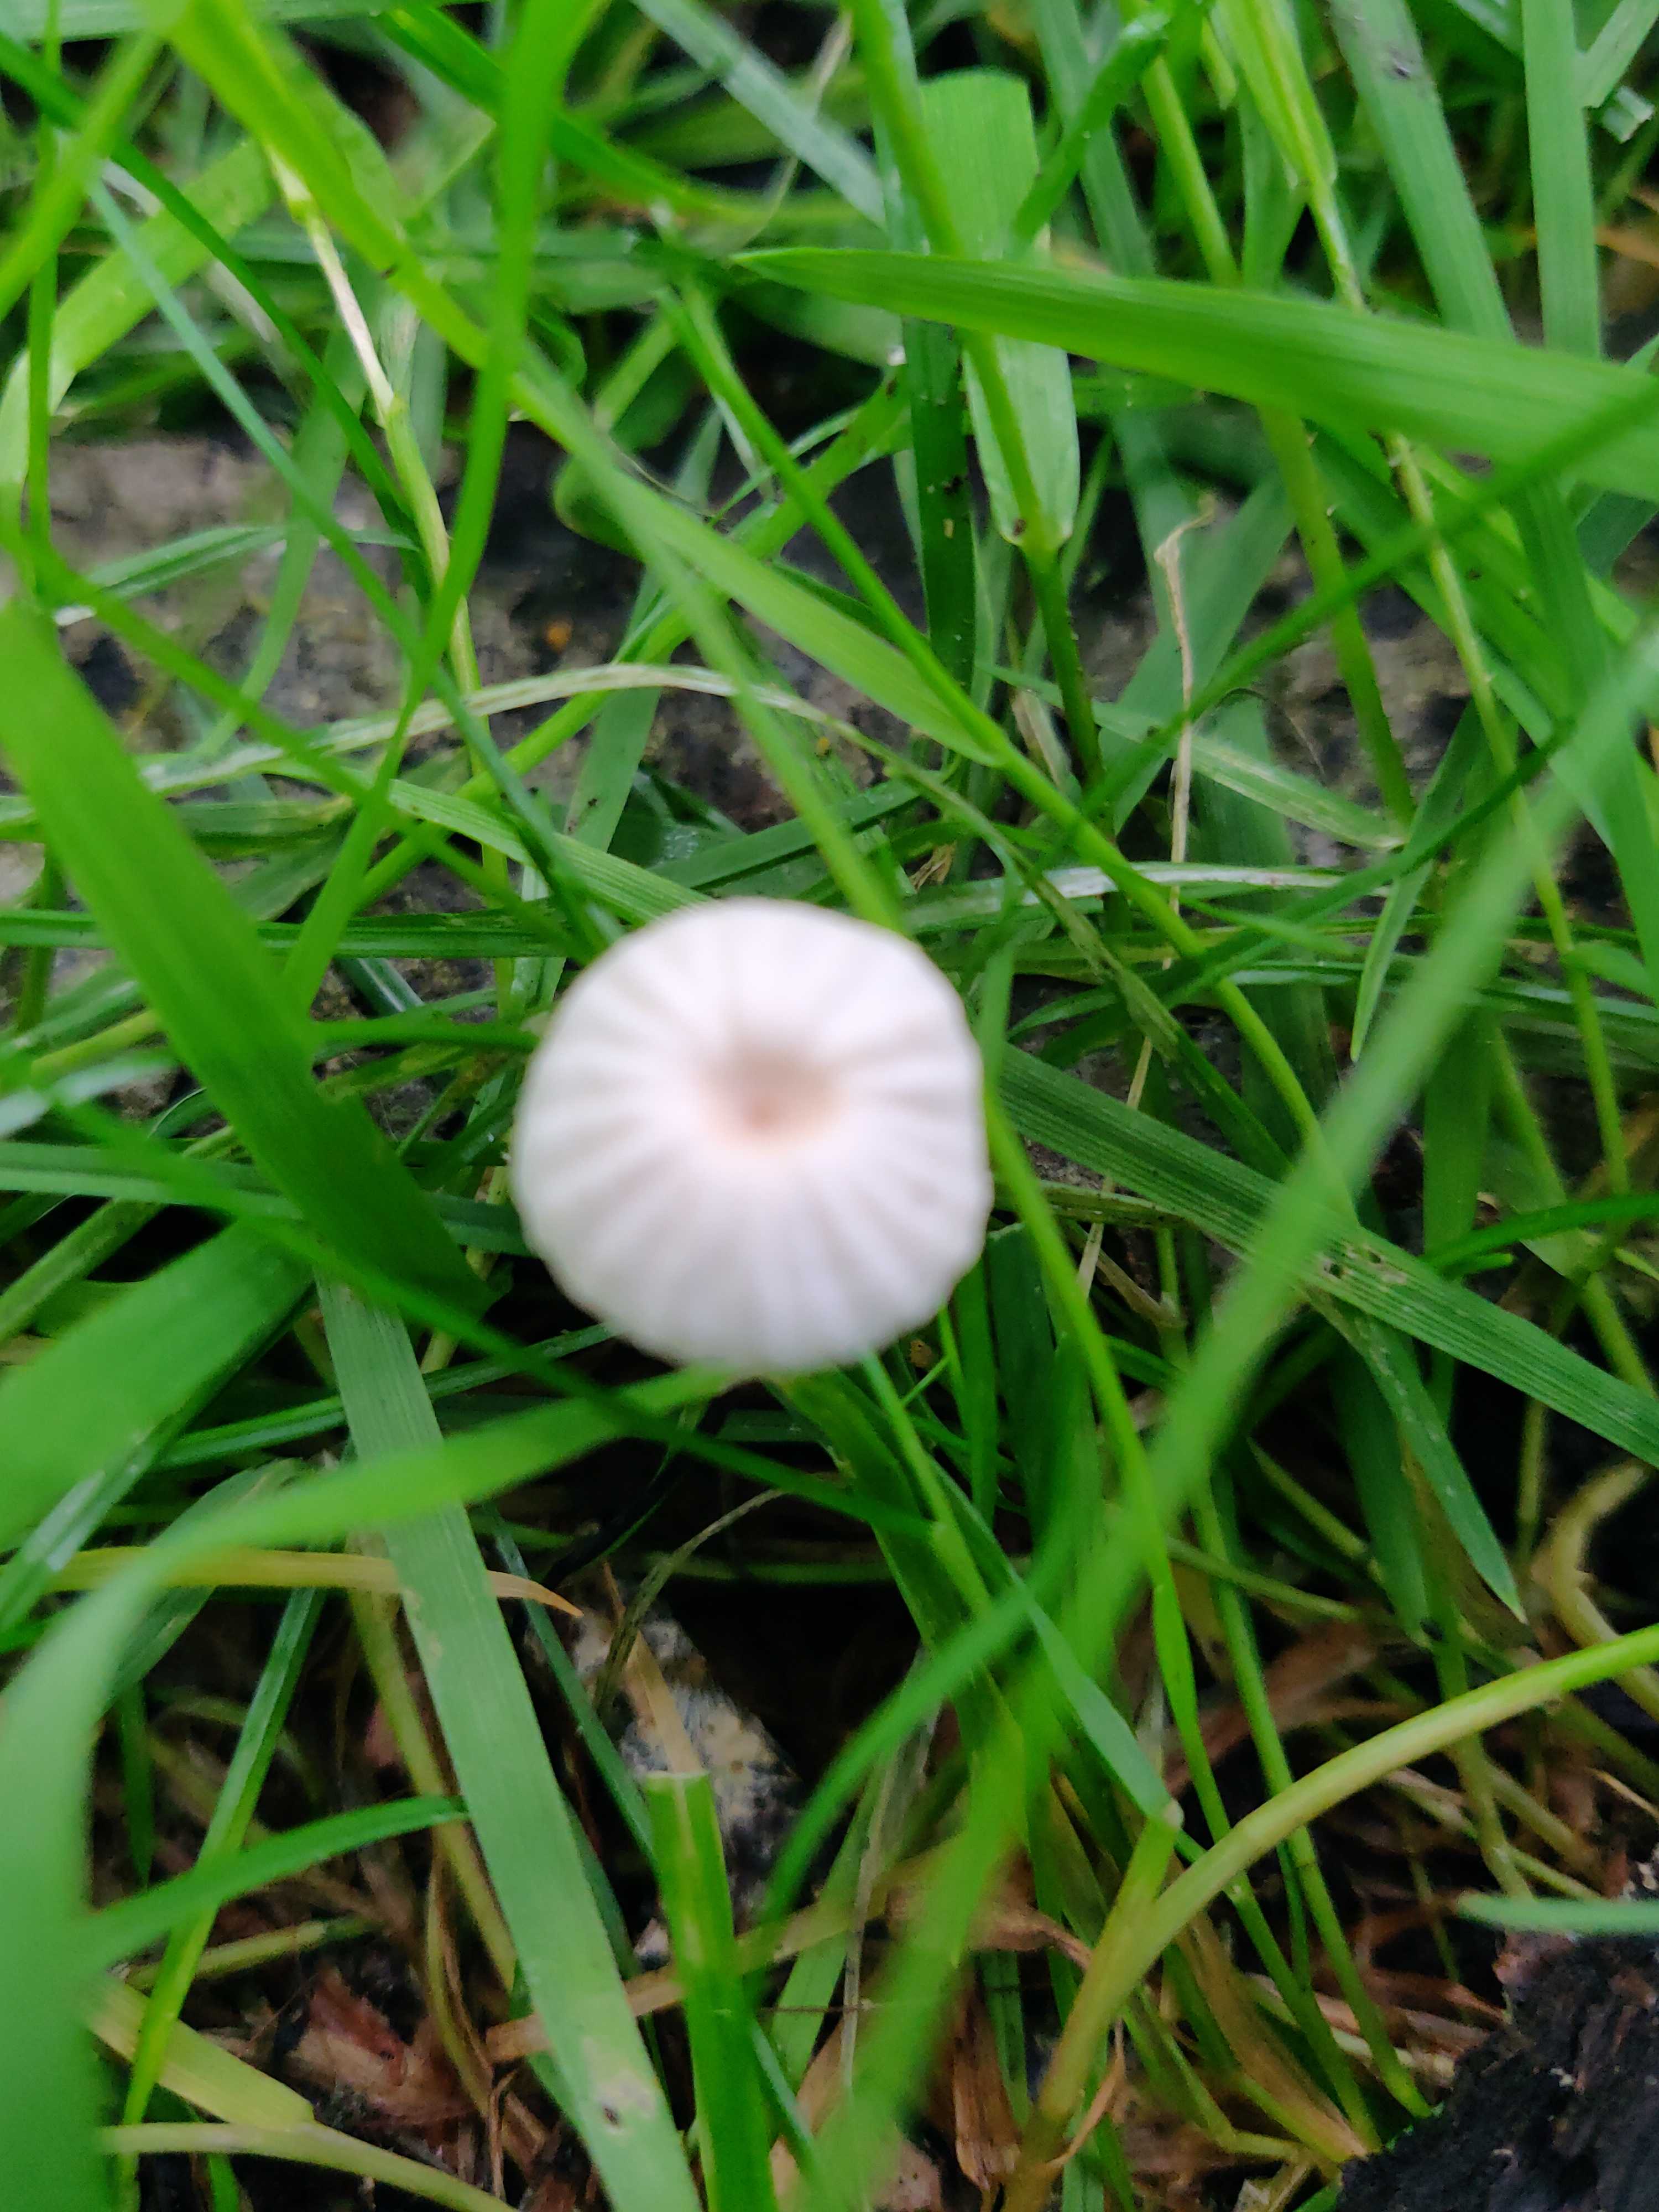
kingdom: Fungi
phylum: Basidiomycota
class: Agaricomycetes
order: Agaricales
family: Marasmiaceae
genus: Marasmius
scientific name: Marasmius rotula
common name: hjul-bruskhat
